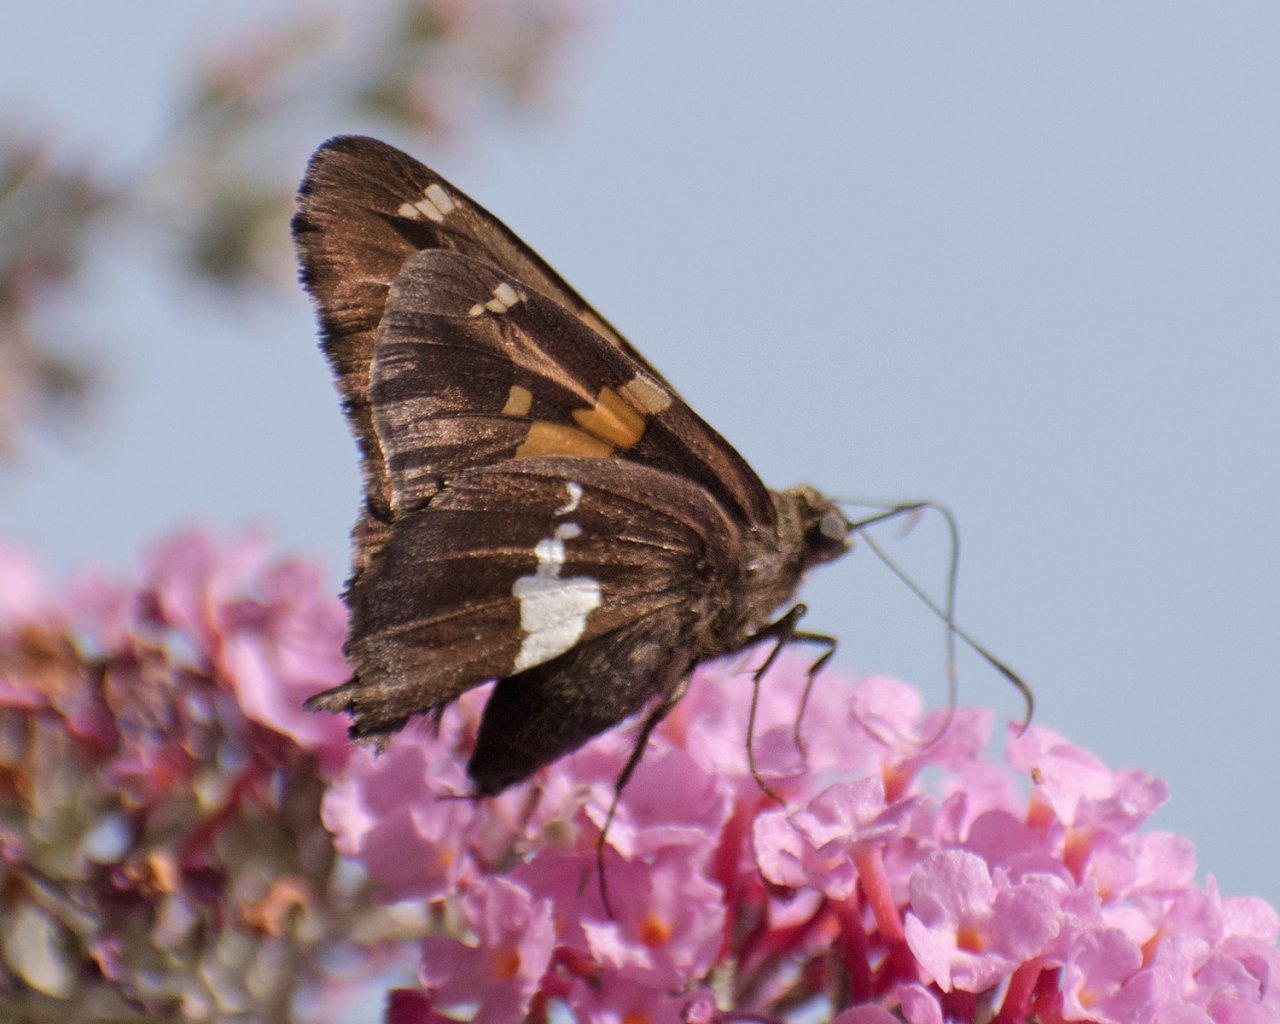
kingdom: Animalia
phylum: Arthropoda
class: Insecta
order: Lepidoptera
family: Hesperiidae
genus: Epargyreus
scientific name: Epargyreus clarus
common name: Silver-spotted Skipper
